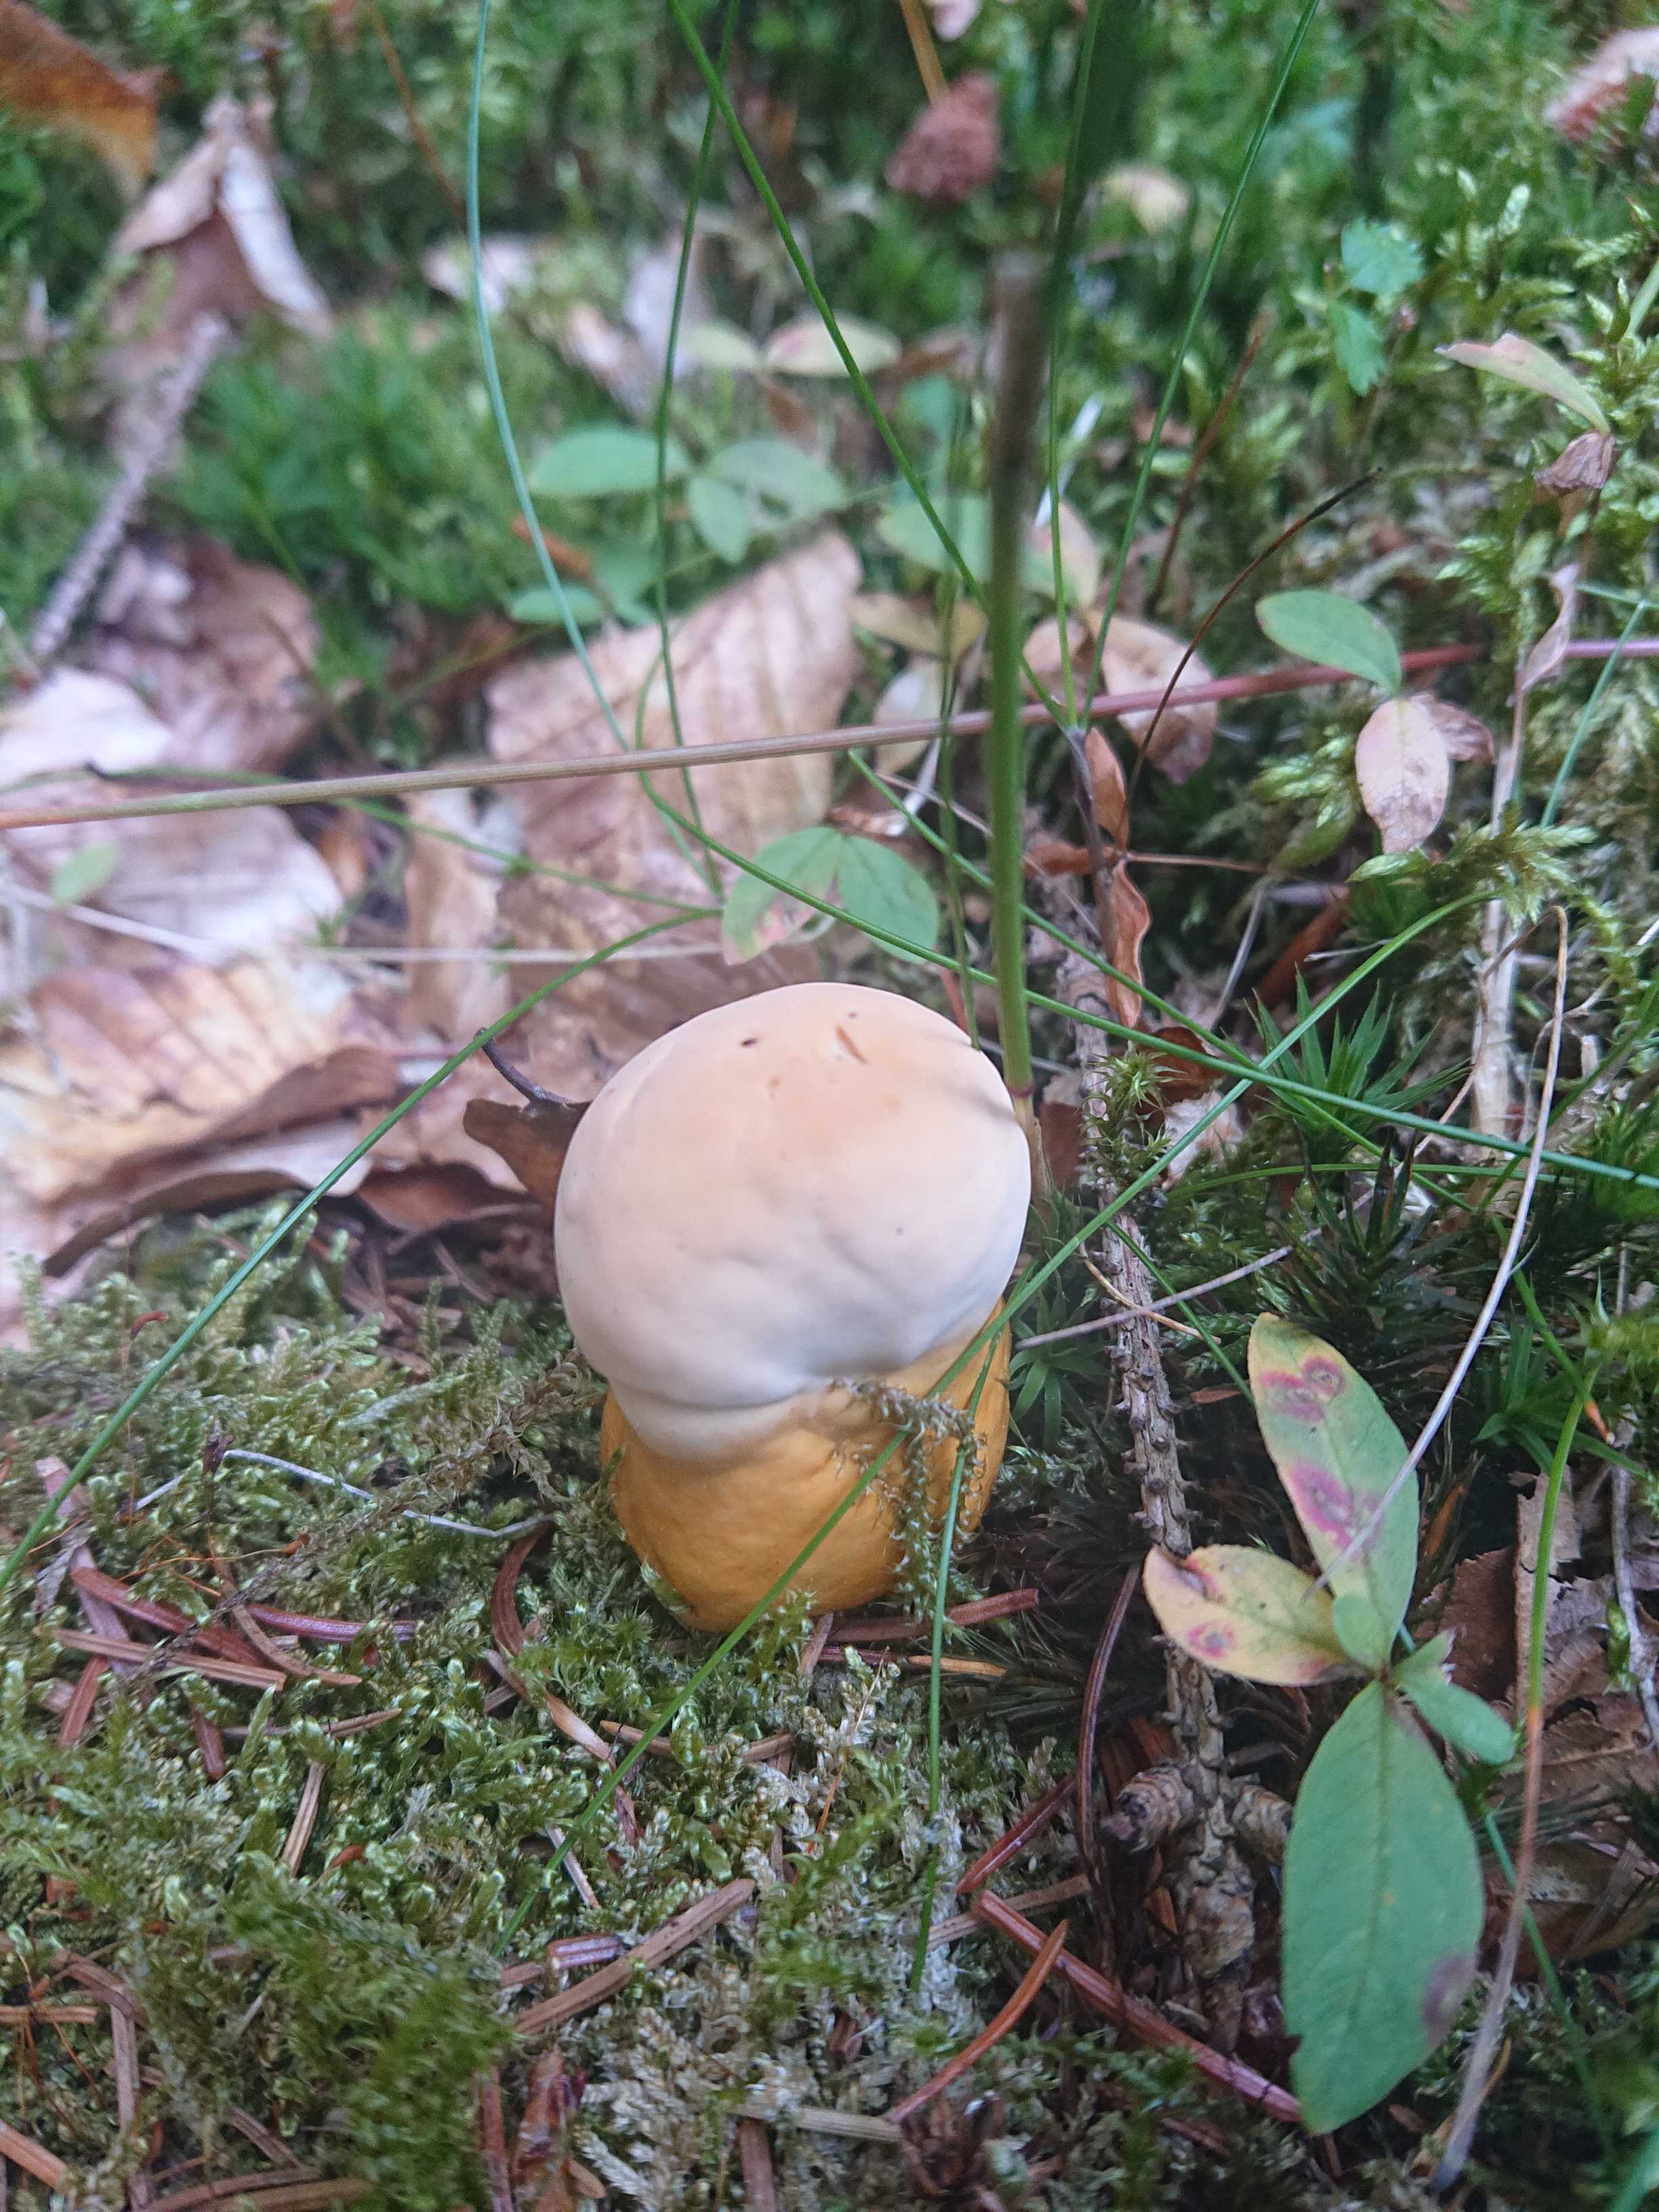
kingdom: Fungi
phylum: Basidiomycota
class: Agaricomycetes
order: Polyporales
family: Polyporaceae
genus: Ganoderma
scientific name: Ganoderma lucidum
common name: skinnende lakporesvamp
